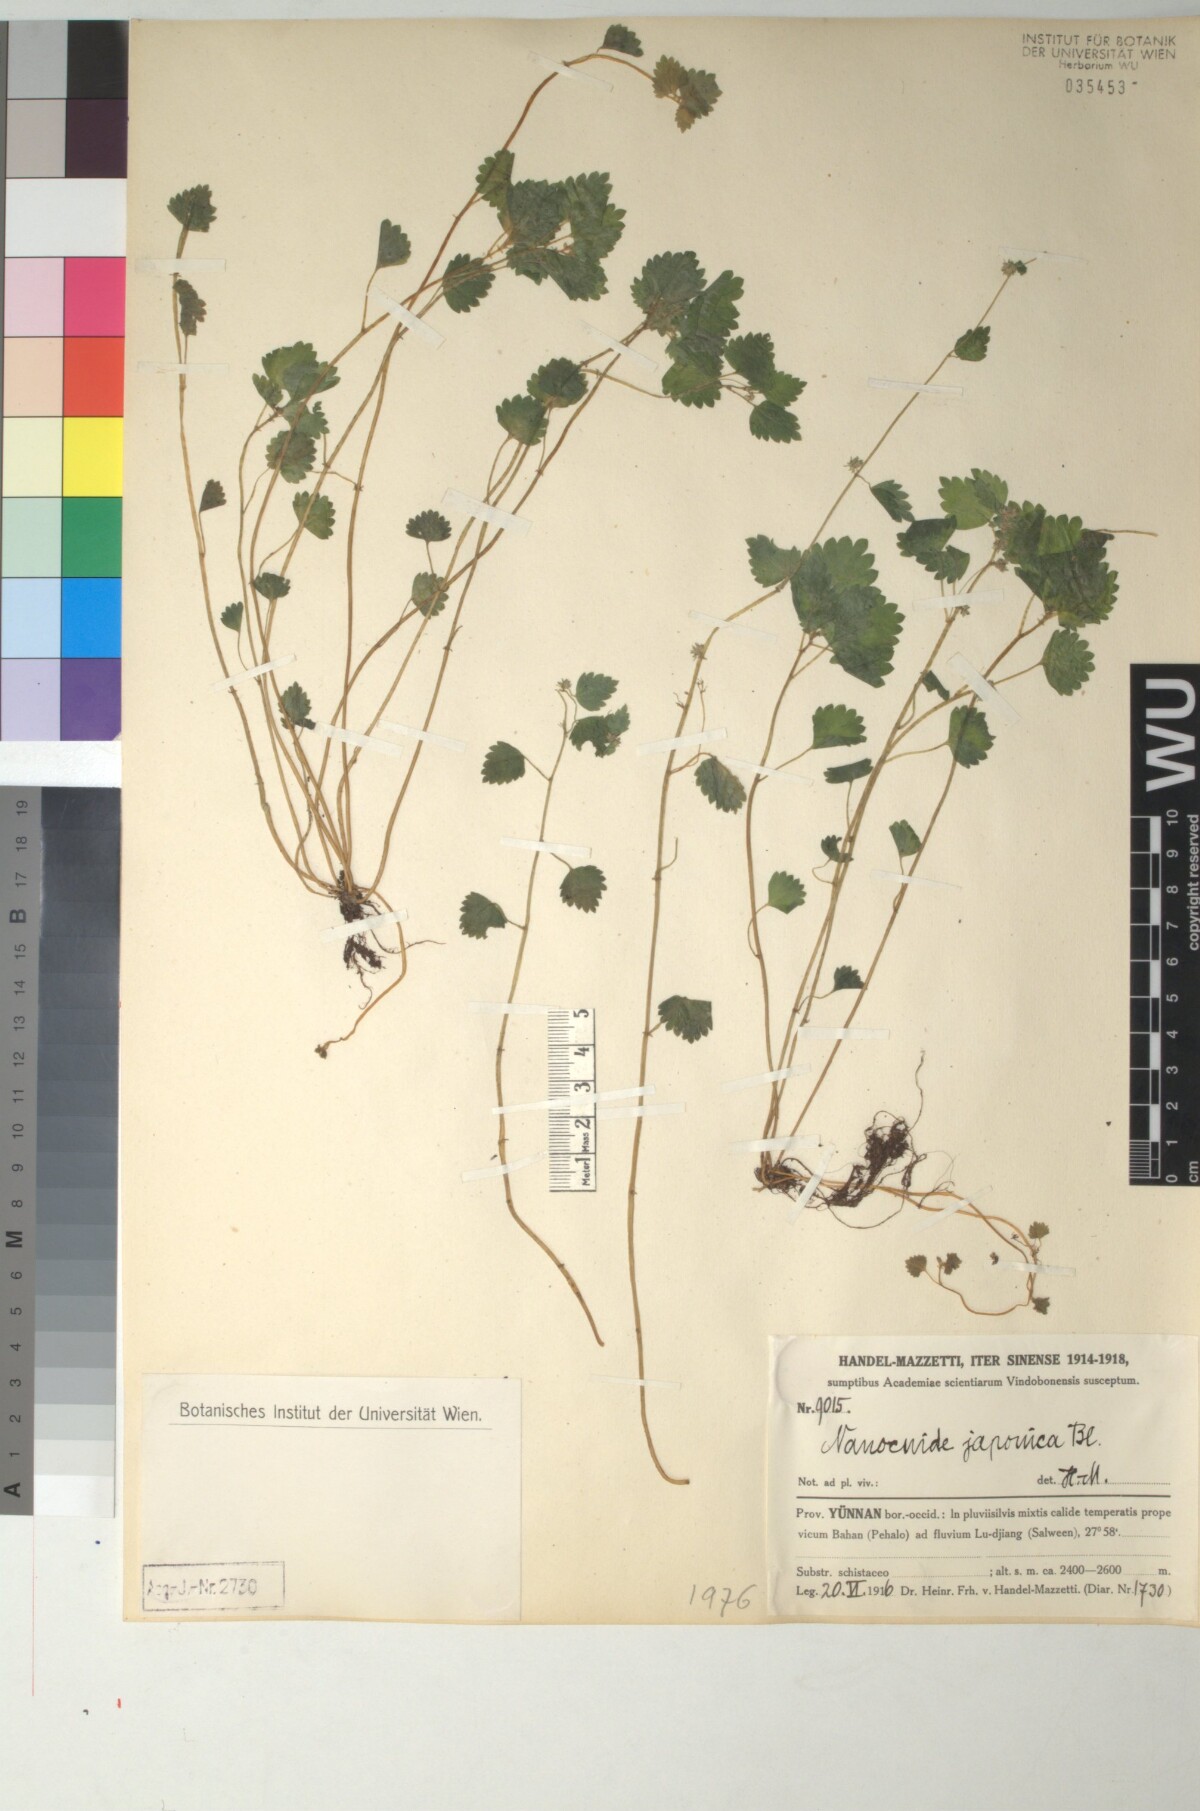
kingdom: Plantae
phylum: Tracheophyta
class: Magnoliopsida
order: Rosales
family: Urticaceae
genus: Nanocnide
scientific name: Nanocnide japonica
